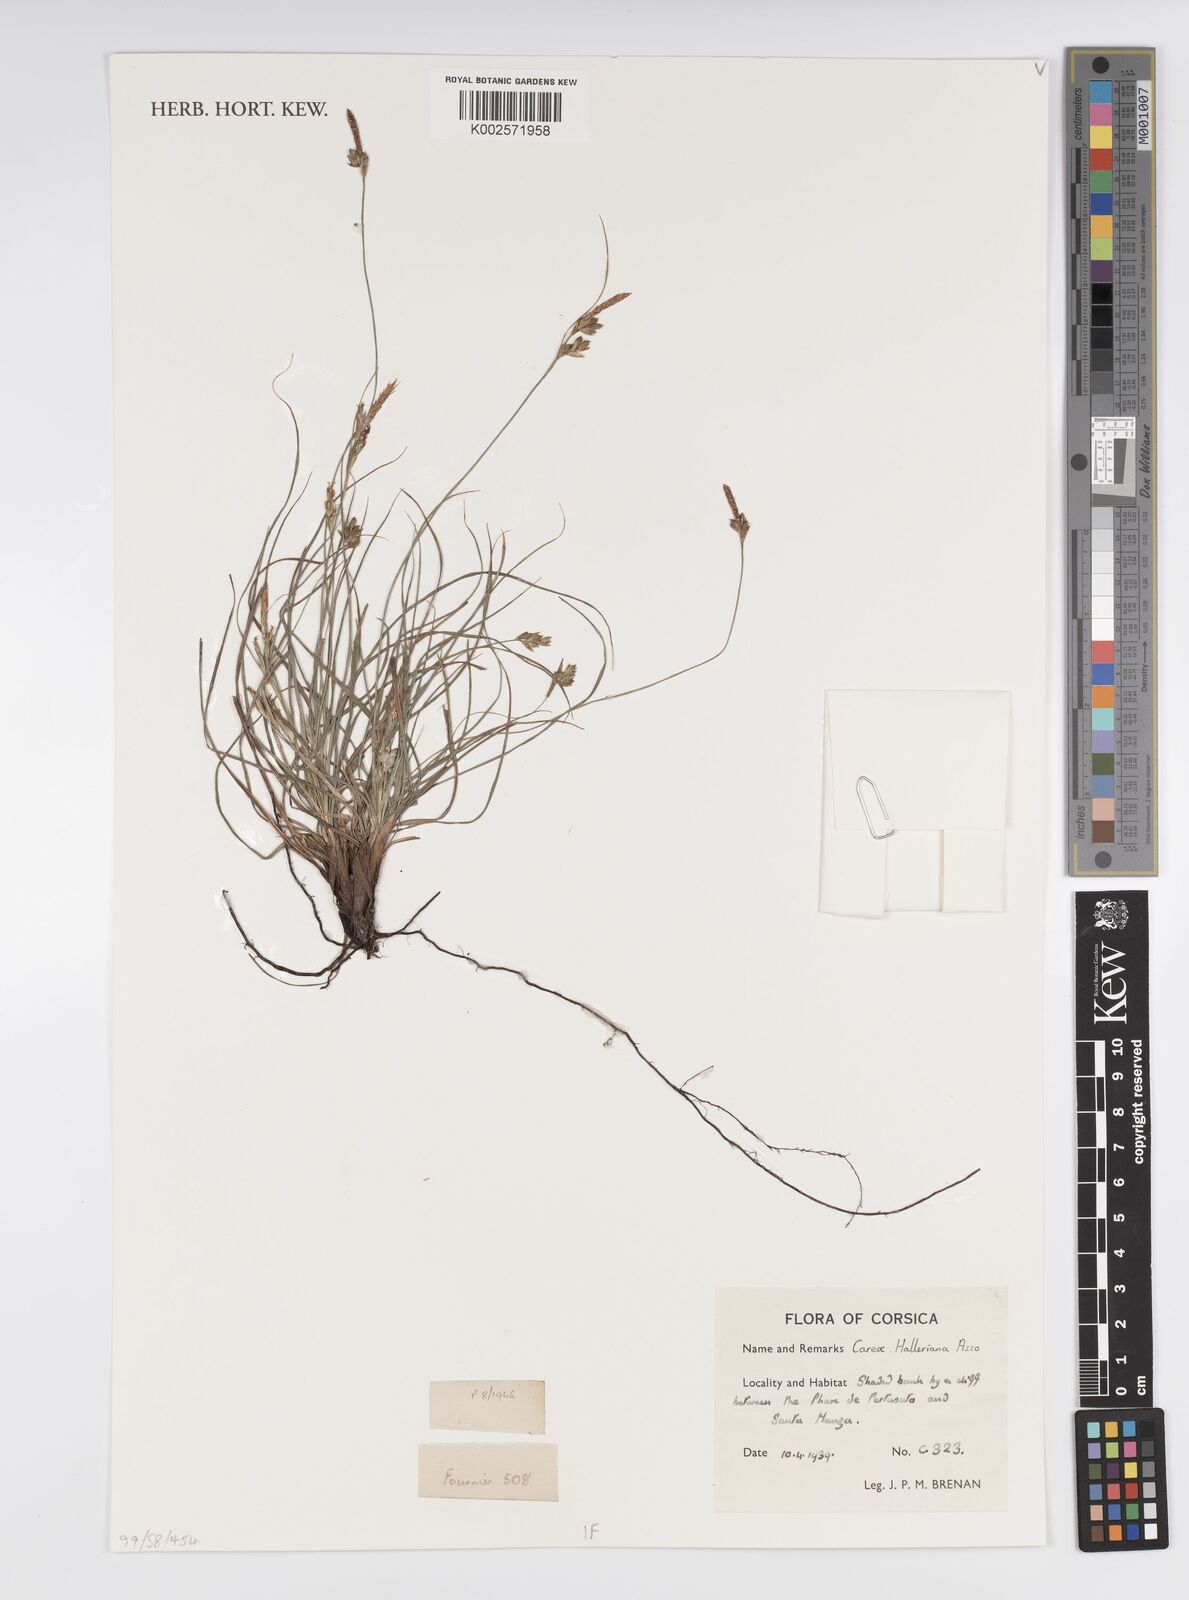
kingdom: Plantae
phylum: Tracheophyta
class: Liliopsida
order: Poales
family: Cyperaceae
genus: Carex
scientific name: Carex halleriana
